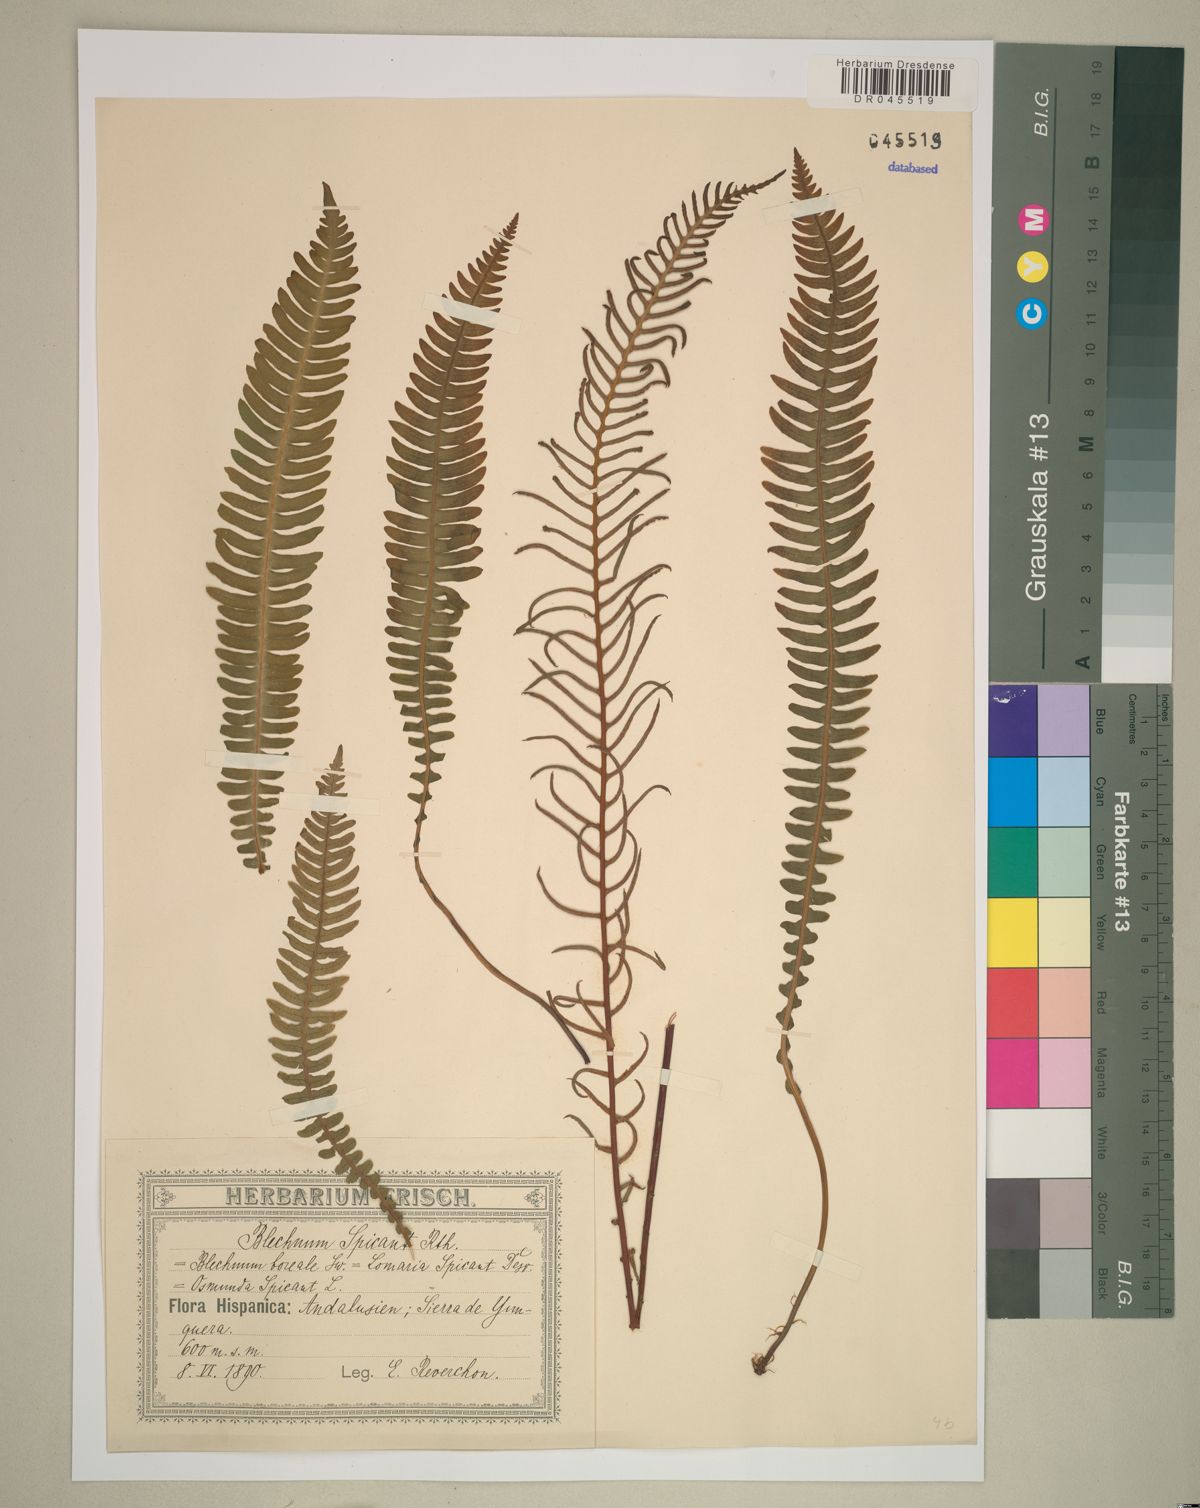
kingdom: Plantae
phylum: Tracheophyta
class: Polypodiopsida
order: Polypodiales
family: Blechnaceae
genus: Struthiopteris
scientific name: Struthiopteris spicant
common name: Deer fern
